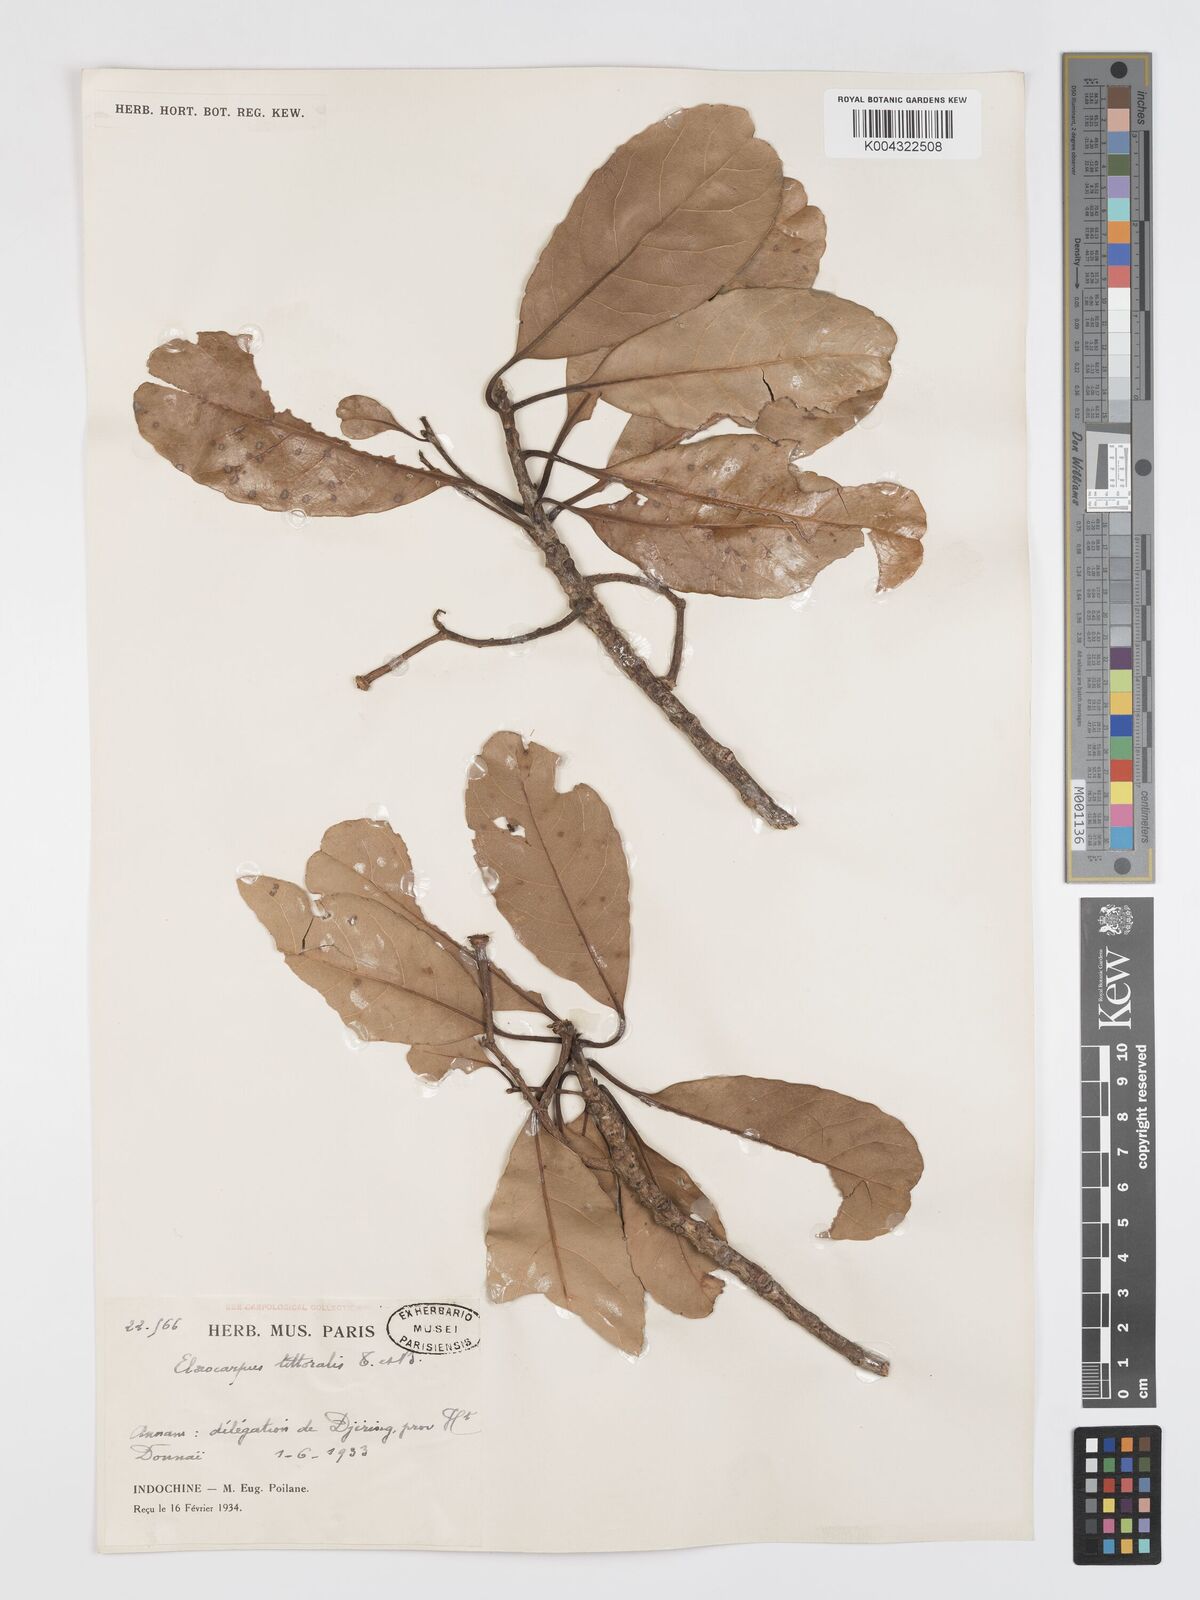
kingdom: Plantae
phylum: Tracheophyta
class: Magnoliopsida
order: Oxalidales
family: Elaeocarpaceae
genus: Elaeocarpus
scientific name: Elaeocarpus macrocerus
